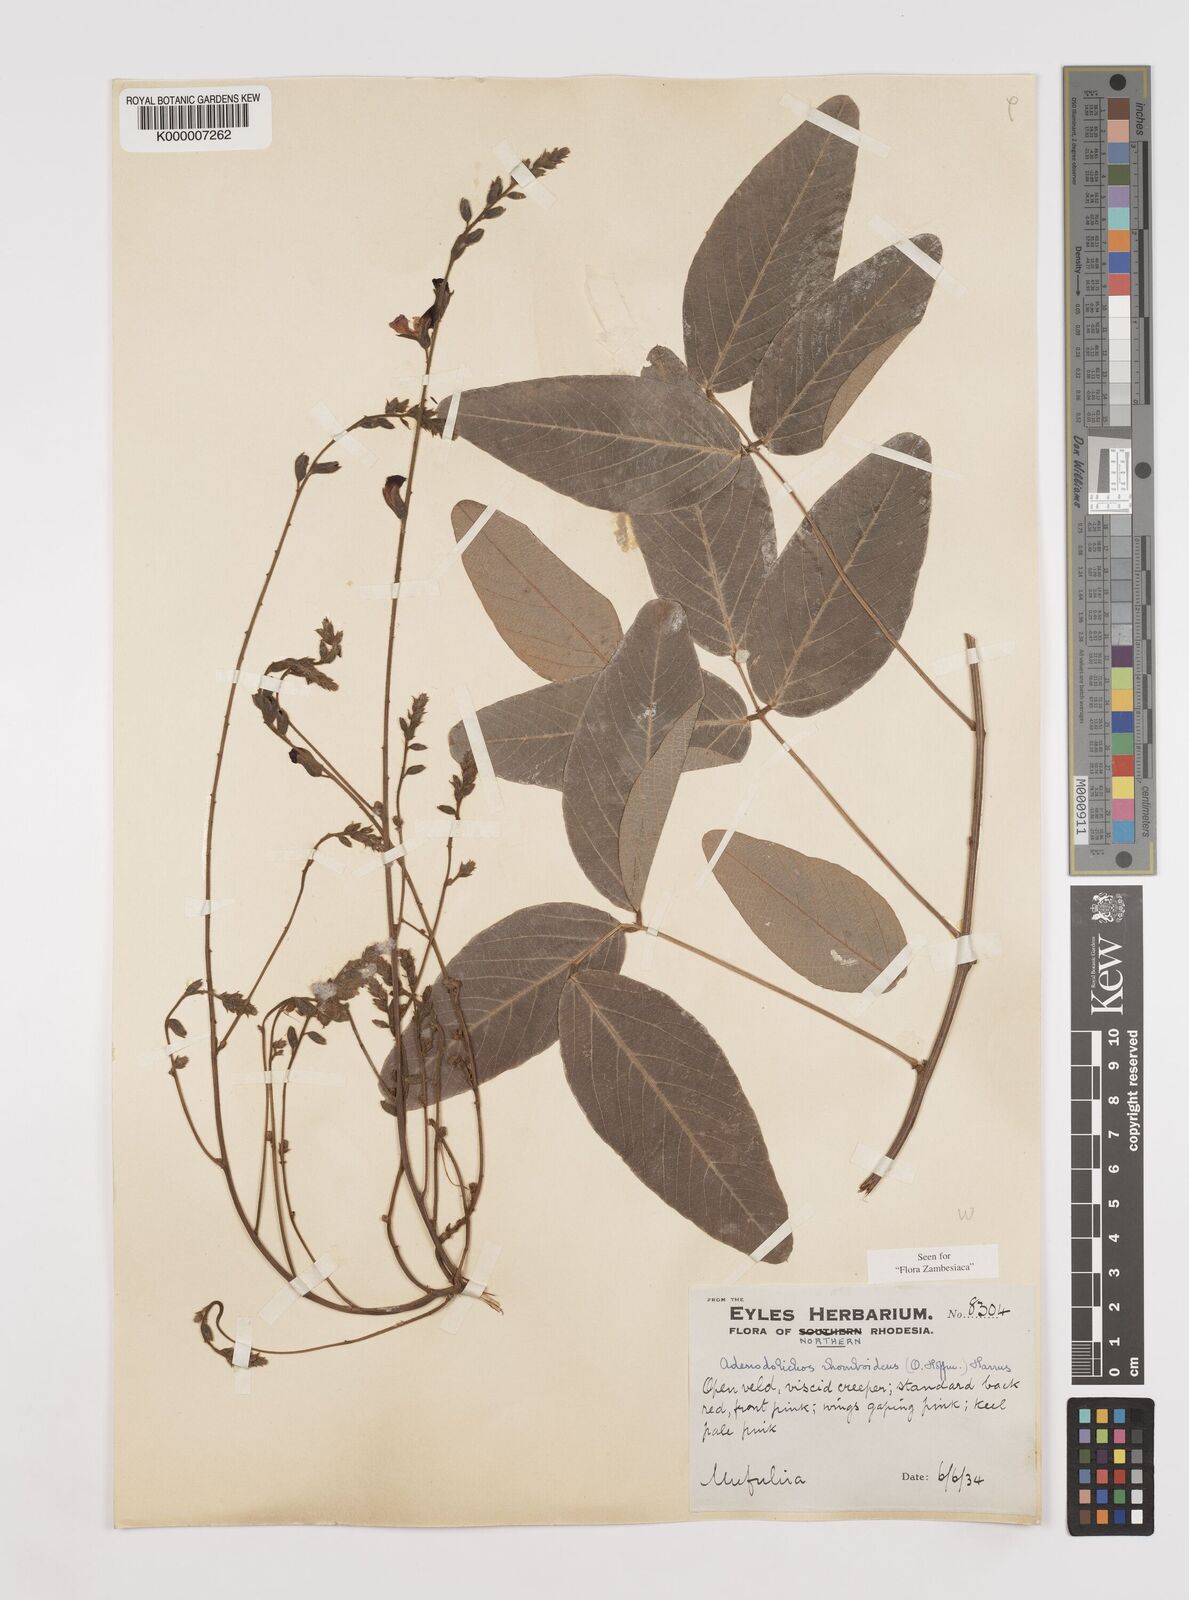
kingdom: Plantae
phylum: Tracheophyta
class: Magnoliopsida
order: Fabales
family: Fabaceae
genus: Adenodolichos
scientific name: Adenodolichos rhomboideus
